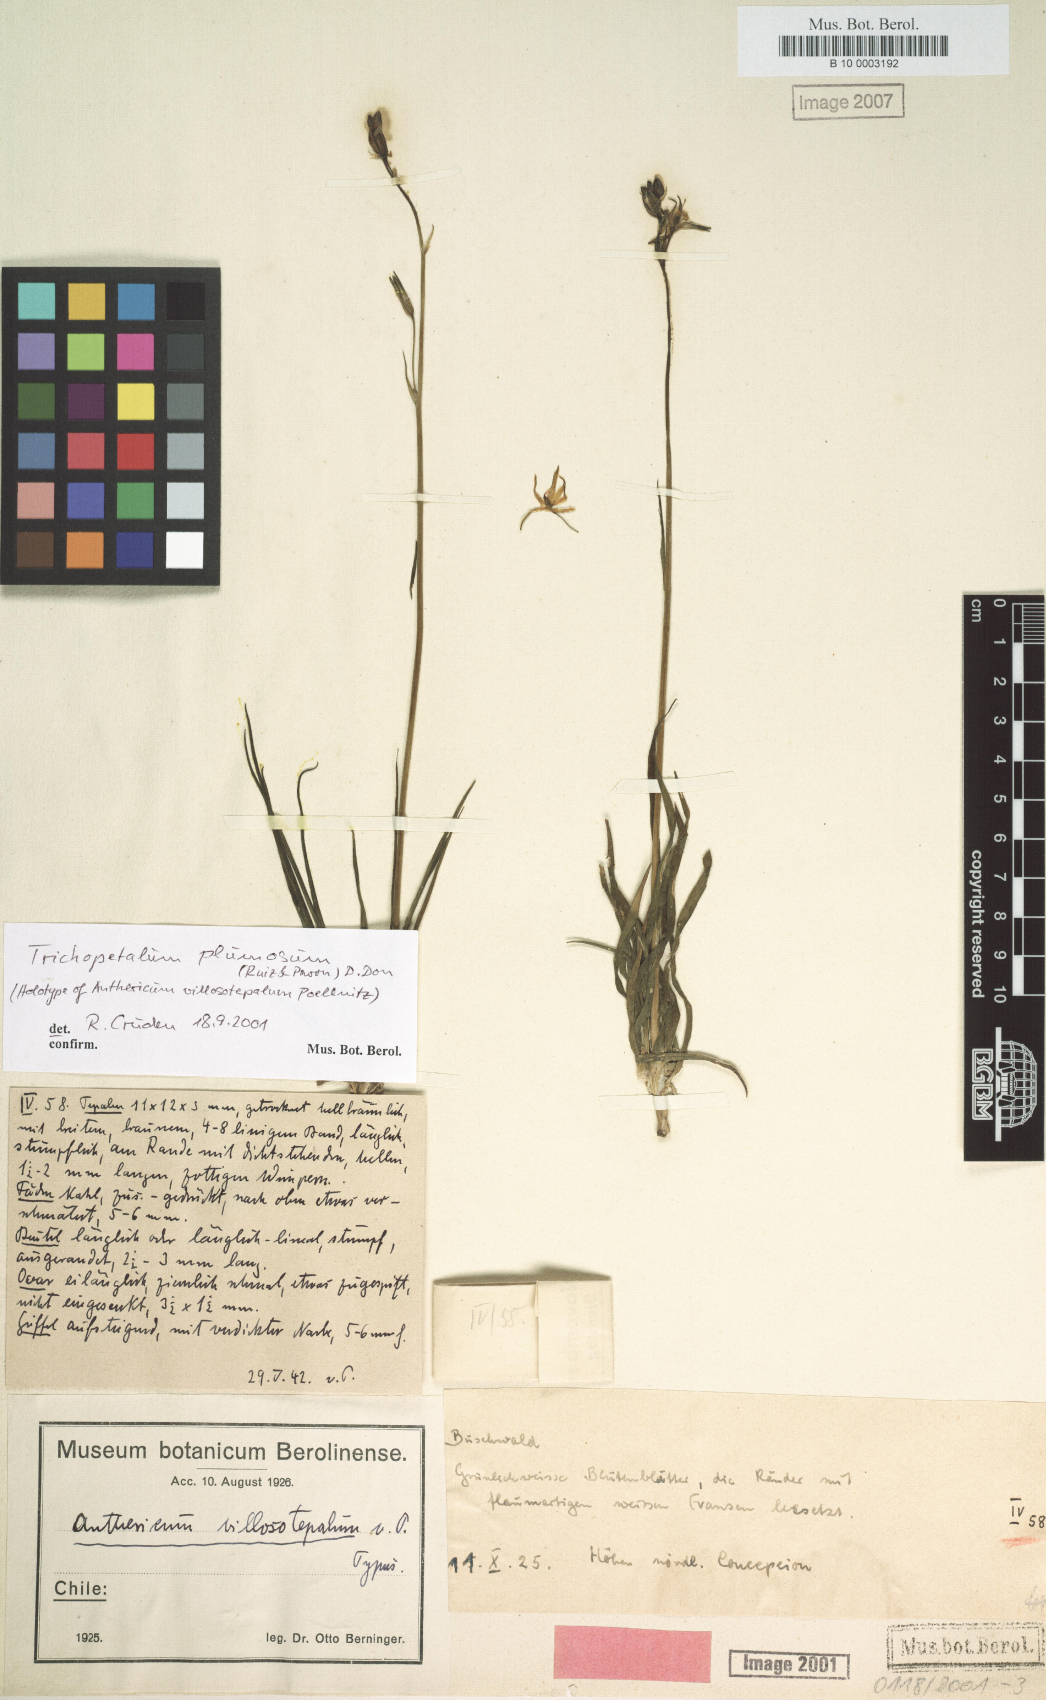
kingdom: Plantae
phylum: Tracheophyta
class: Liliopsida
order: Asparagales
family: Asparagaceae
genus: Trichopetalum
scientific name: Trichopetalum plumosum
